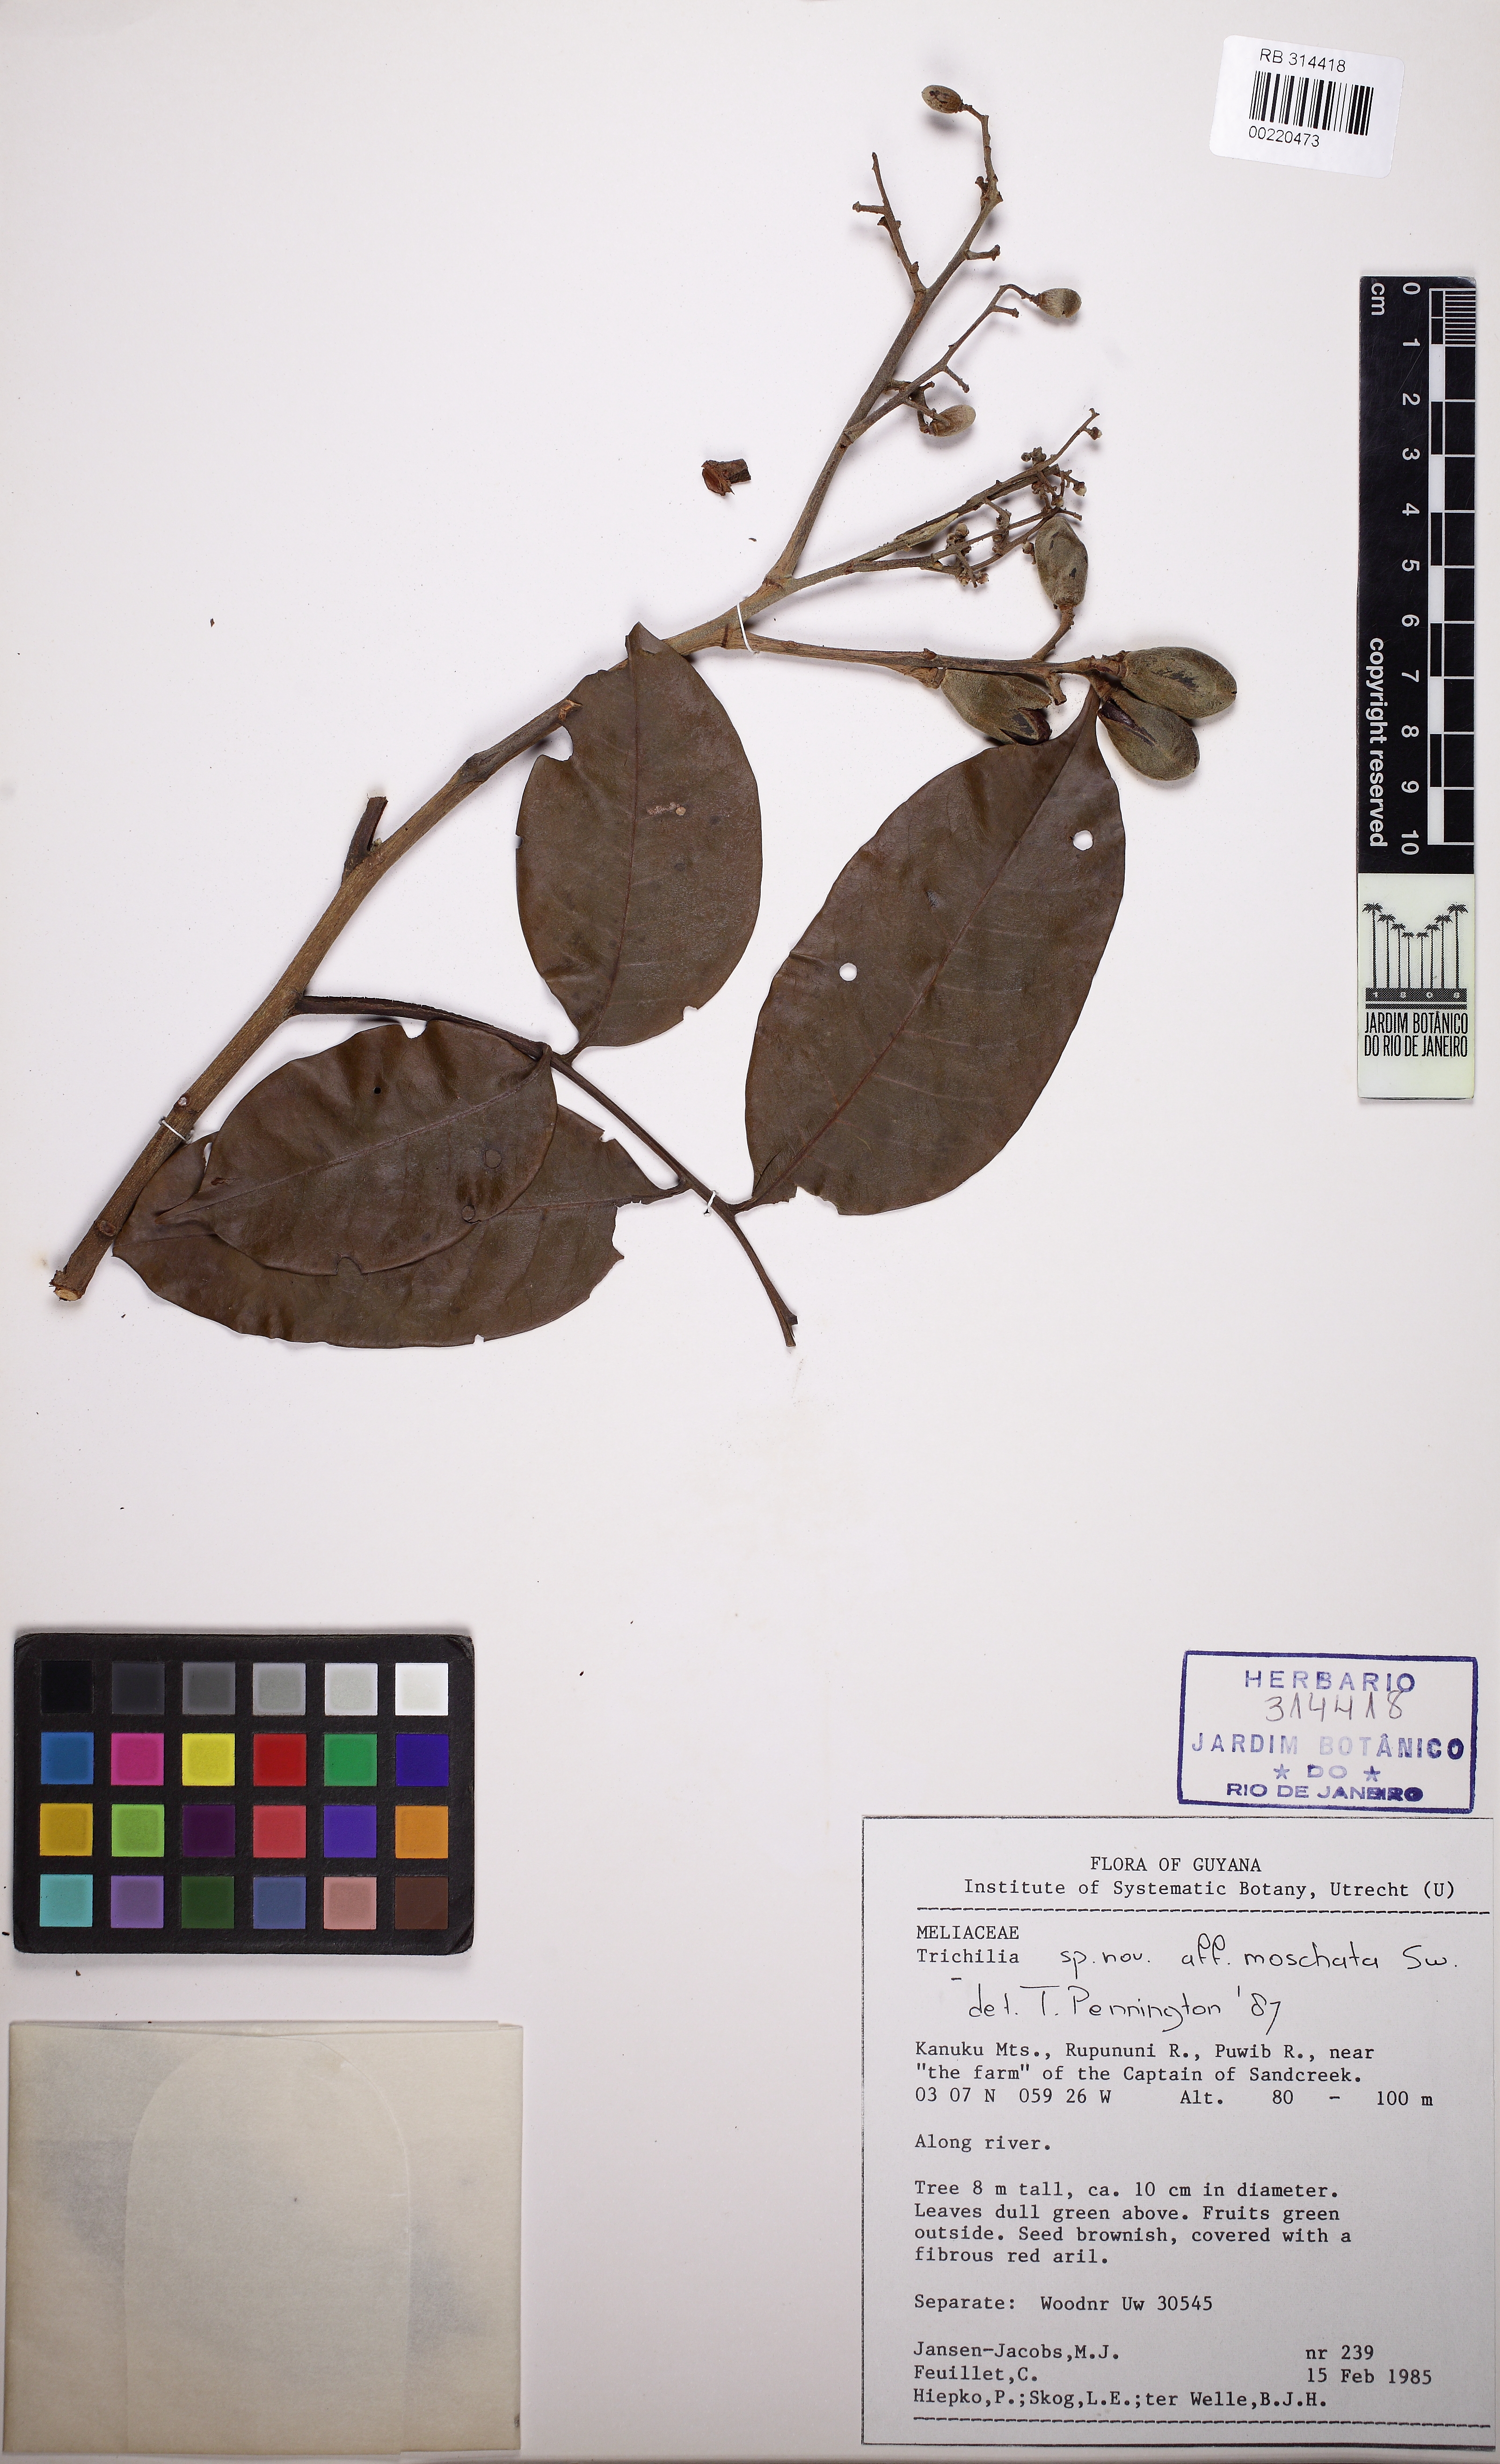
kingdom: Plantae
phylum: Tracheophyta
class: Magnoliopsida
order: Sapindales
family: Meliaceae
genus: Trichilia
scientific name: Trichilia moschata
